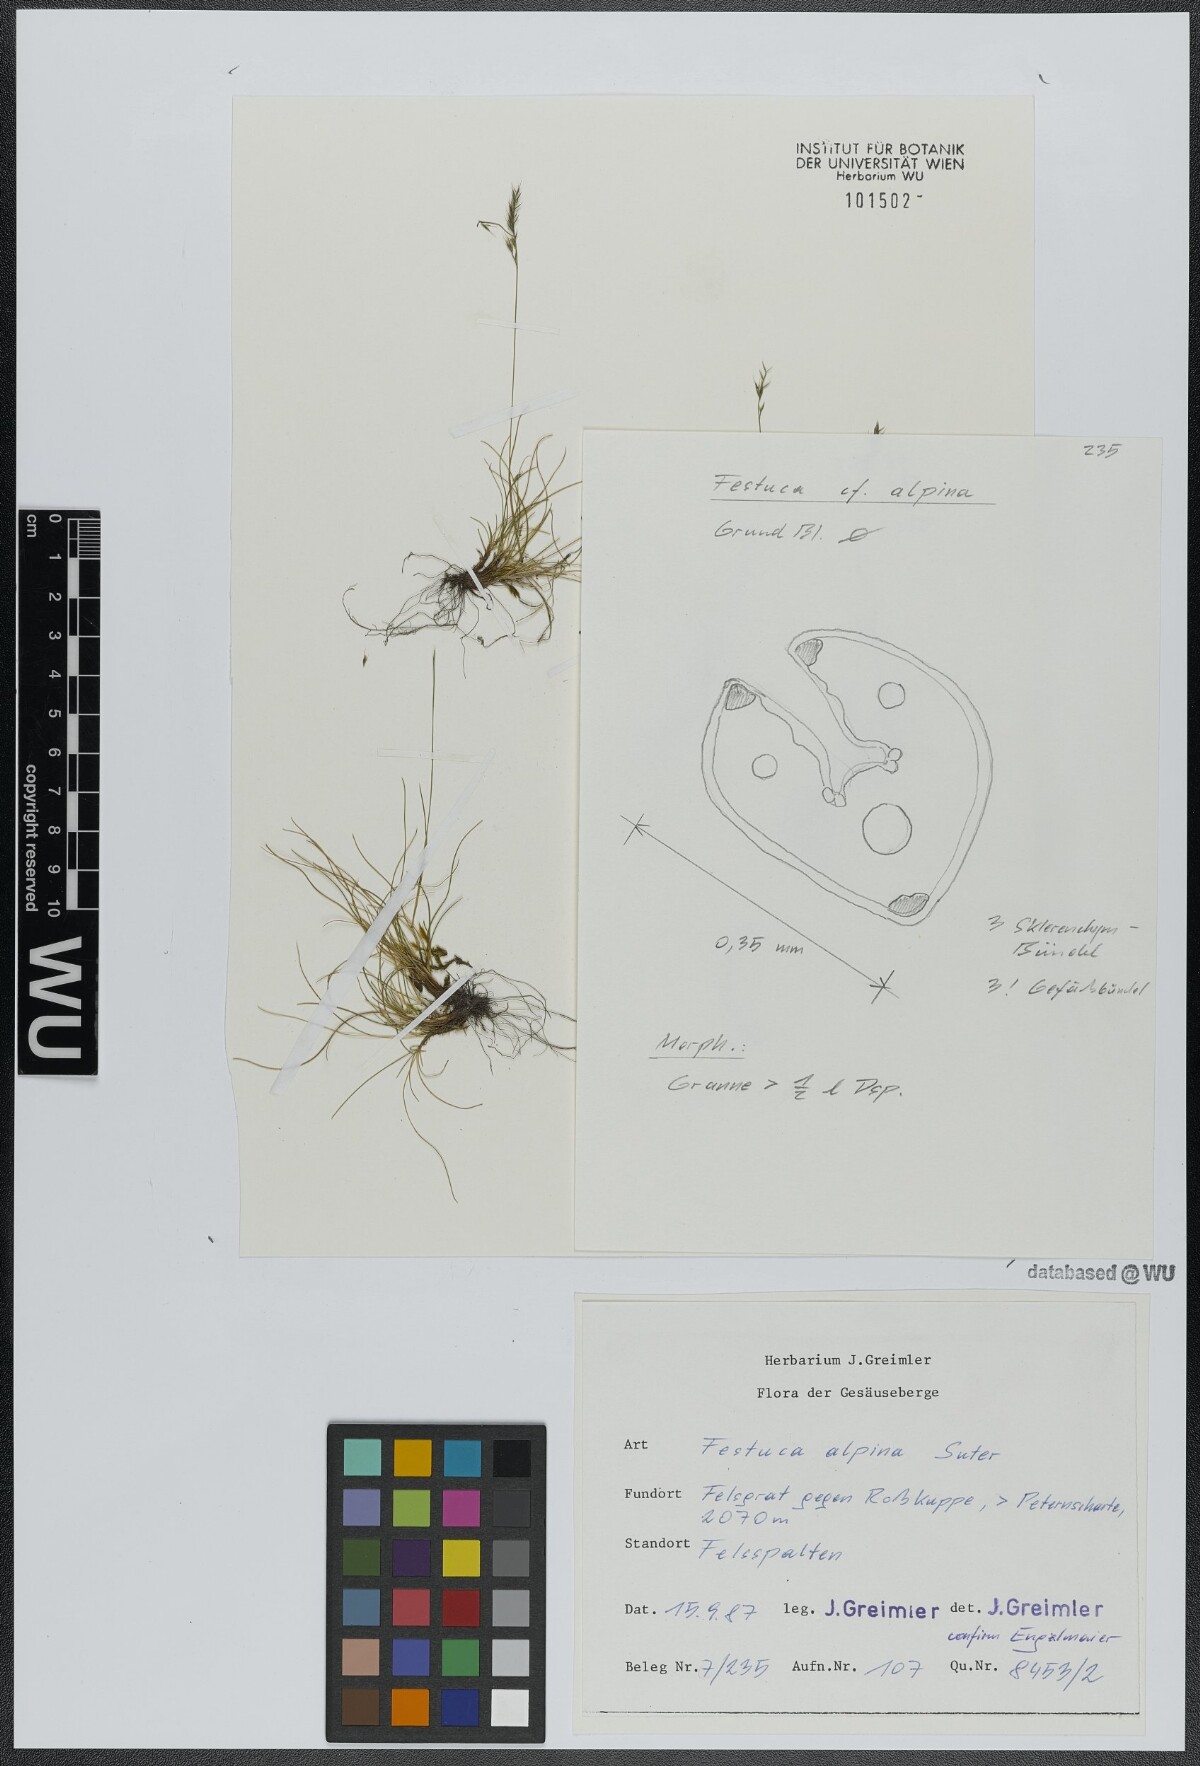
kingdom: Plantae
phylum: Tracheophyta
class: Liliopsida
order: Poales
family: Poaceae
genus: Festuca
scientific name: Festuca alpina
